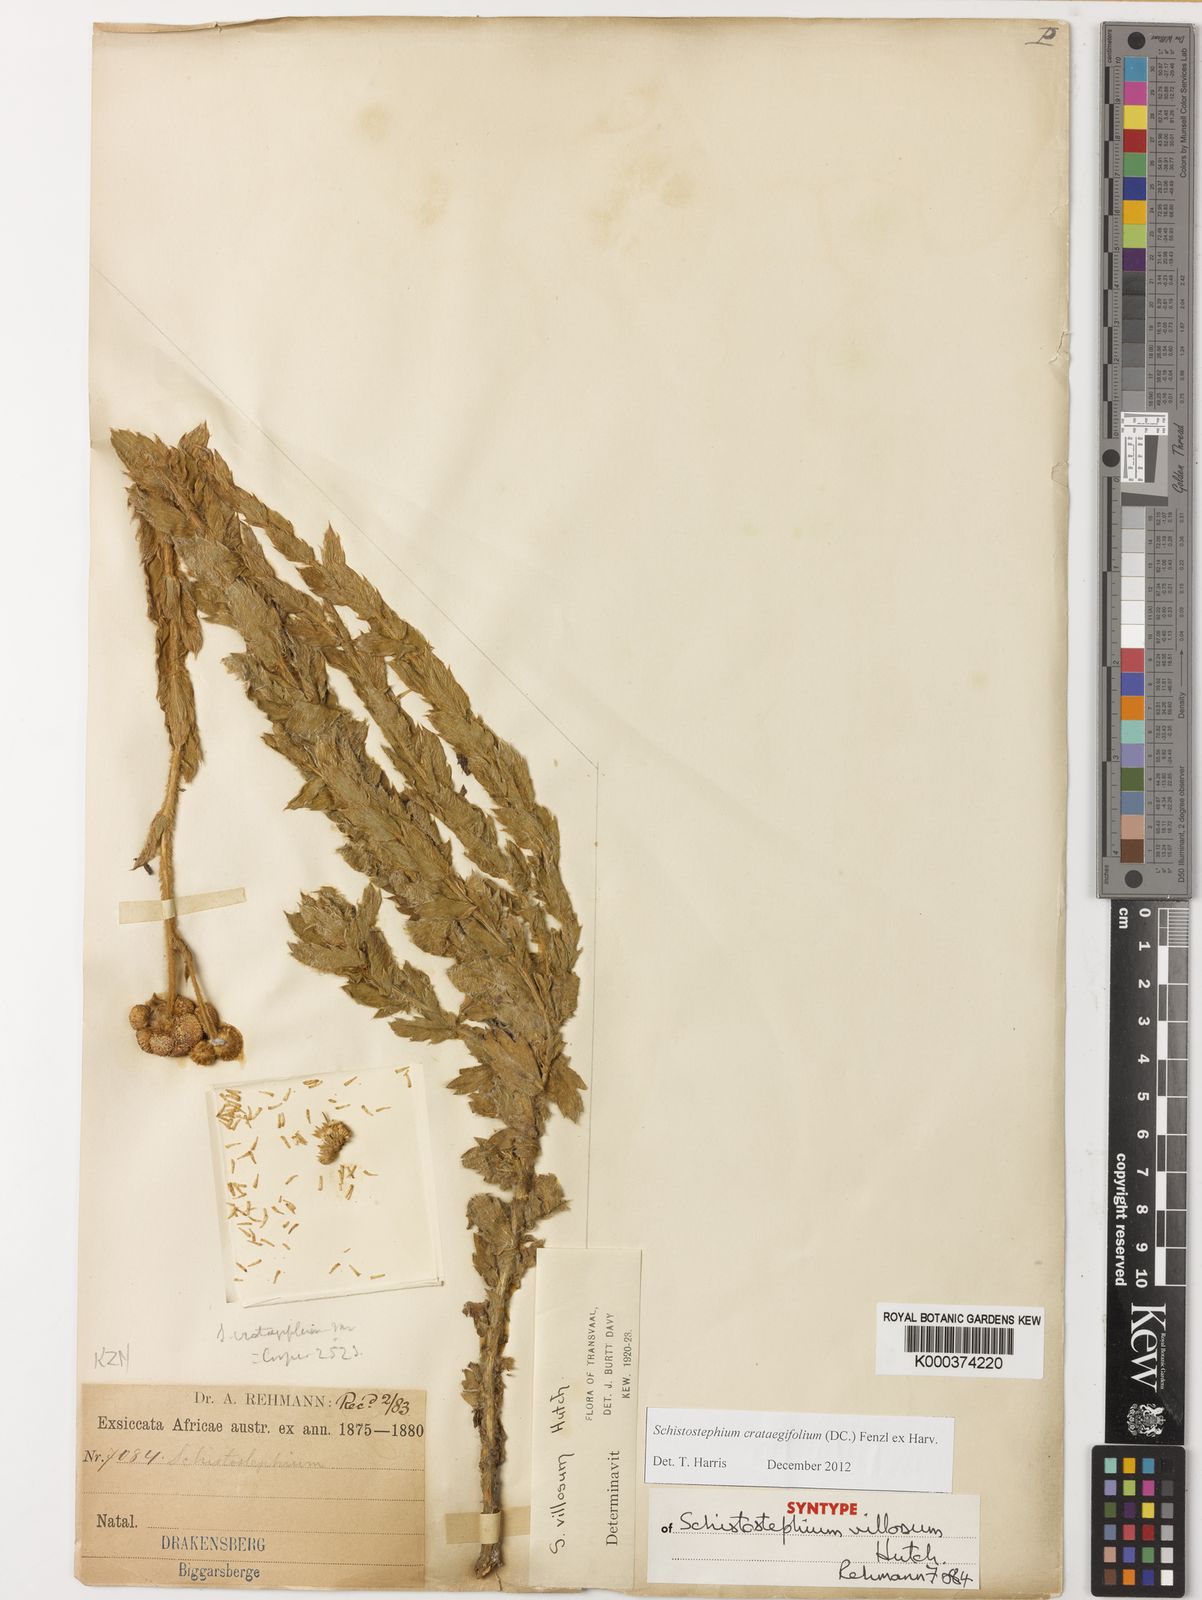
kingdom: Plantae
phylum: Tracheophyta
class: Magnoliopsida
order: Asterales
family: Asteraceae
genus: Schistostephium
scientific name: Schistostephium crataegifolium
